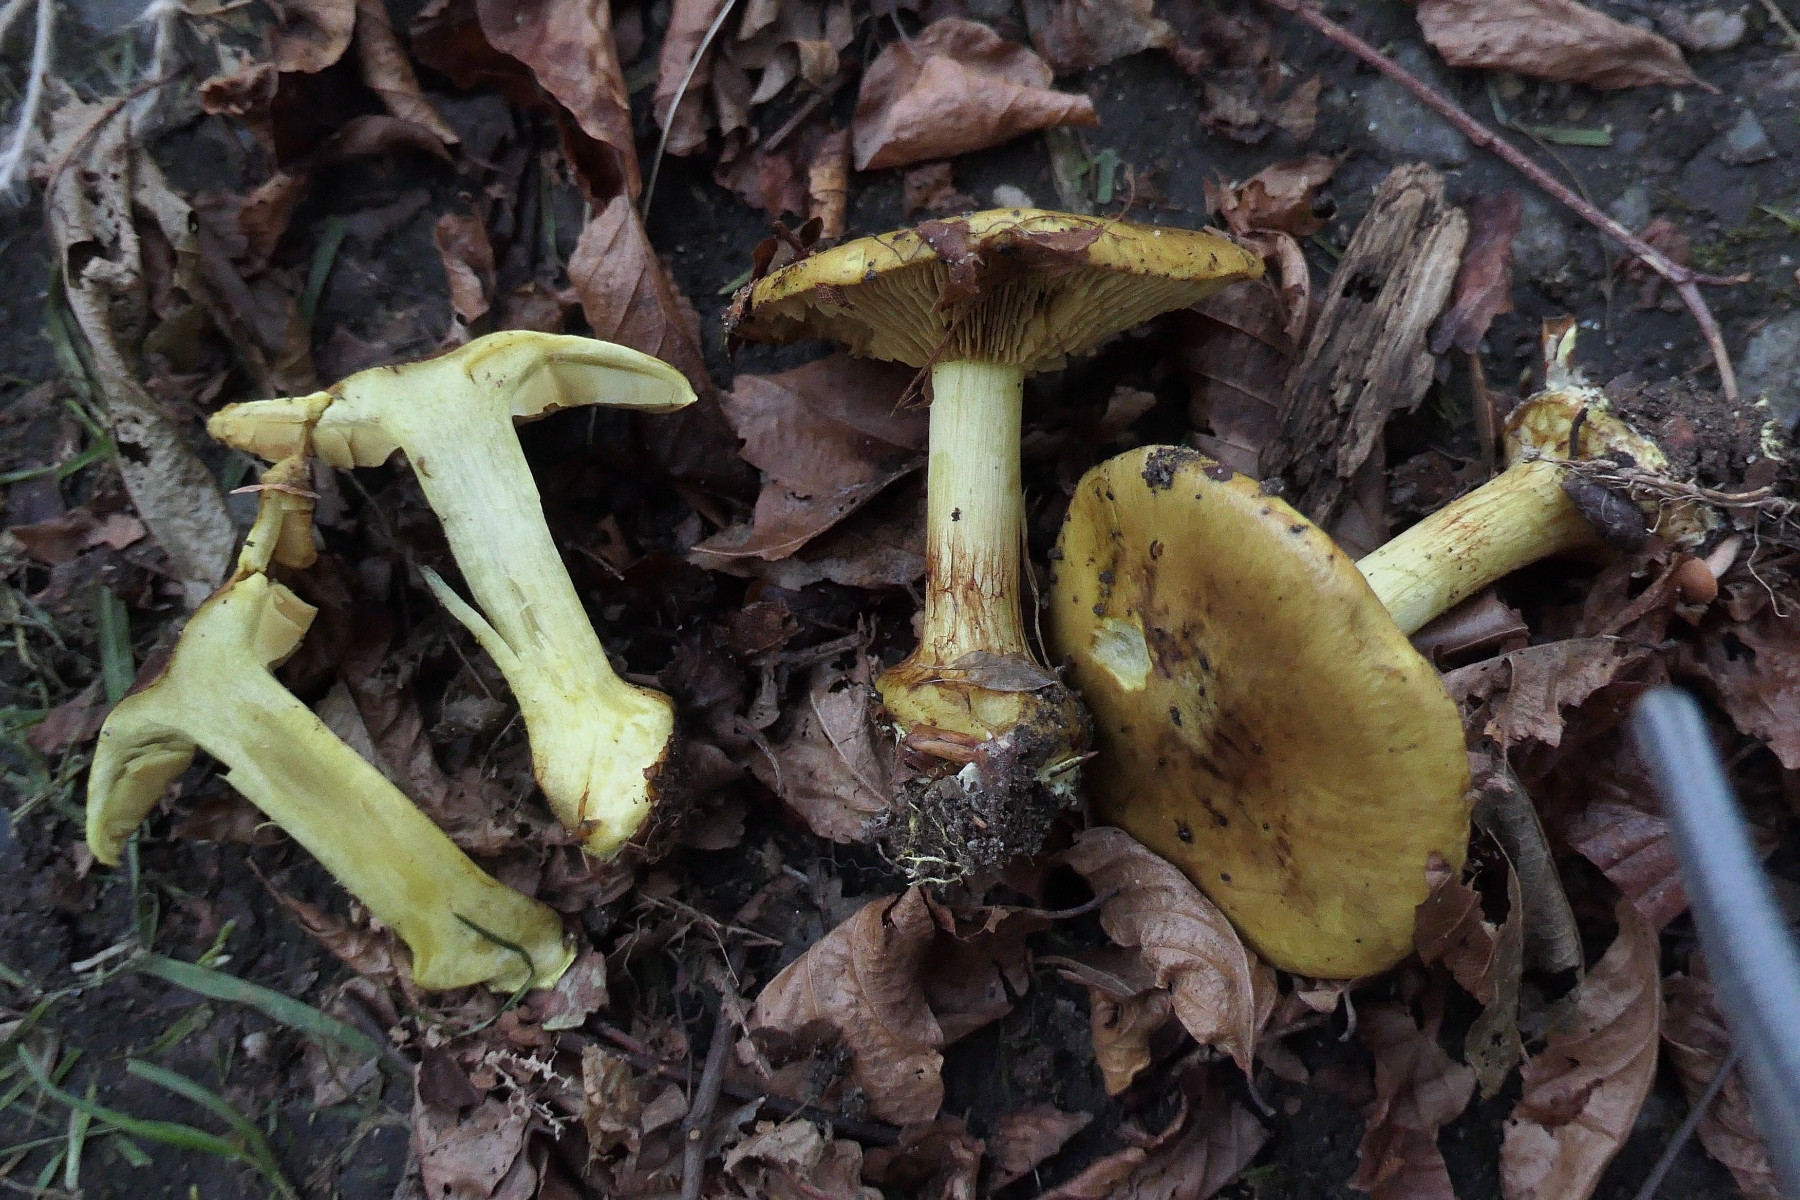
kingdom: Fungi
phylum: Basidiomycota
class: Agaricomycetes
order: Agaricales
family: Cortinariaceae
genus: Calonarius
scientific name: Calonarius citrinus
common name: citrongul slørhat
